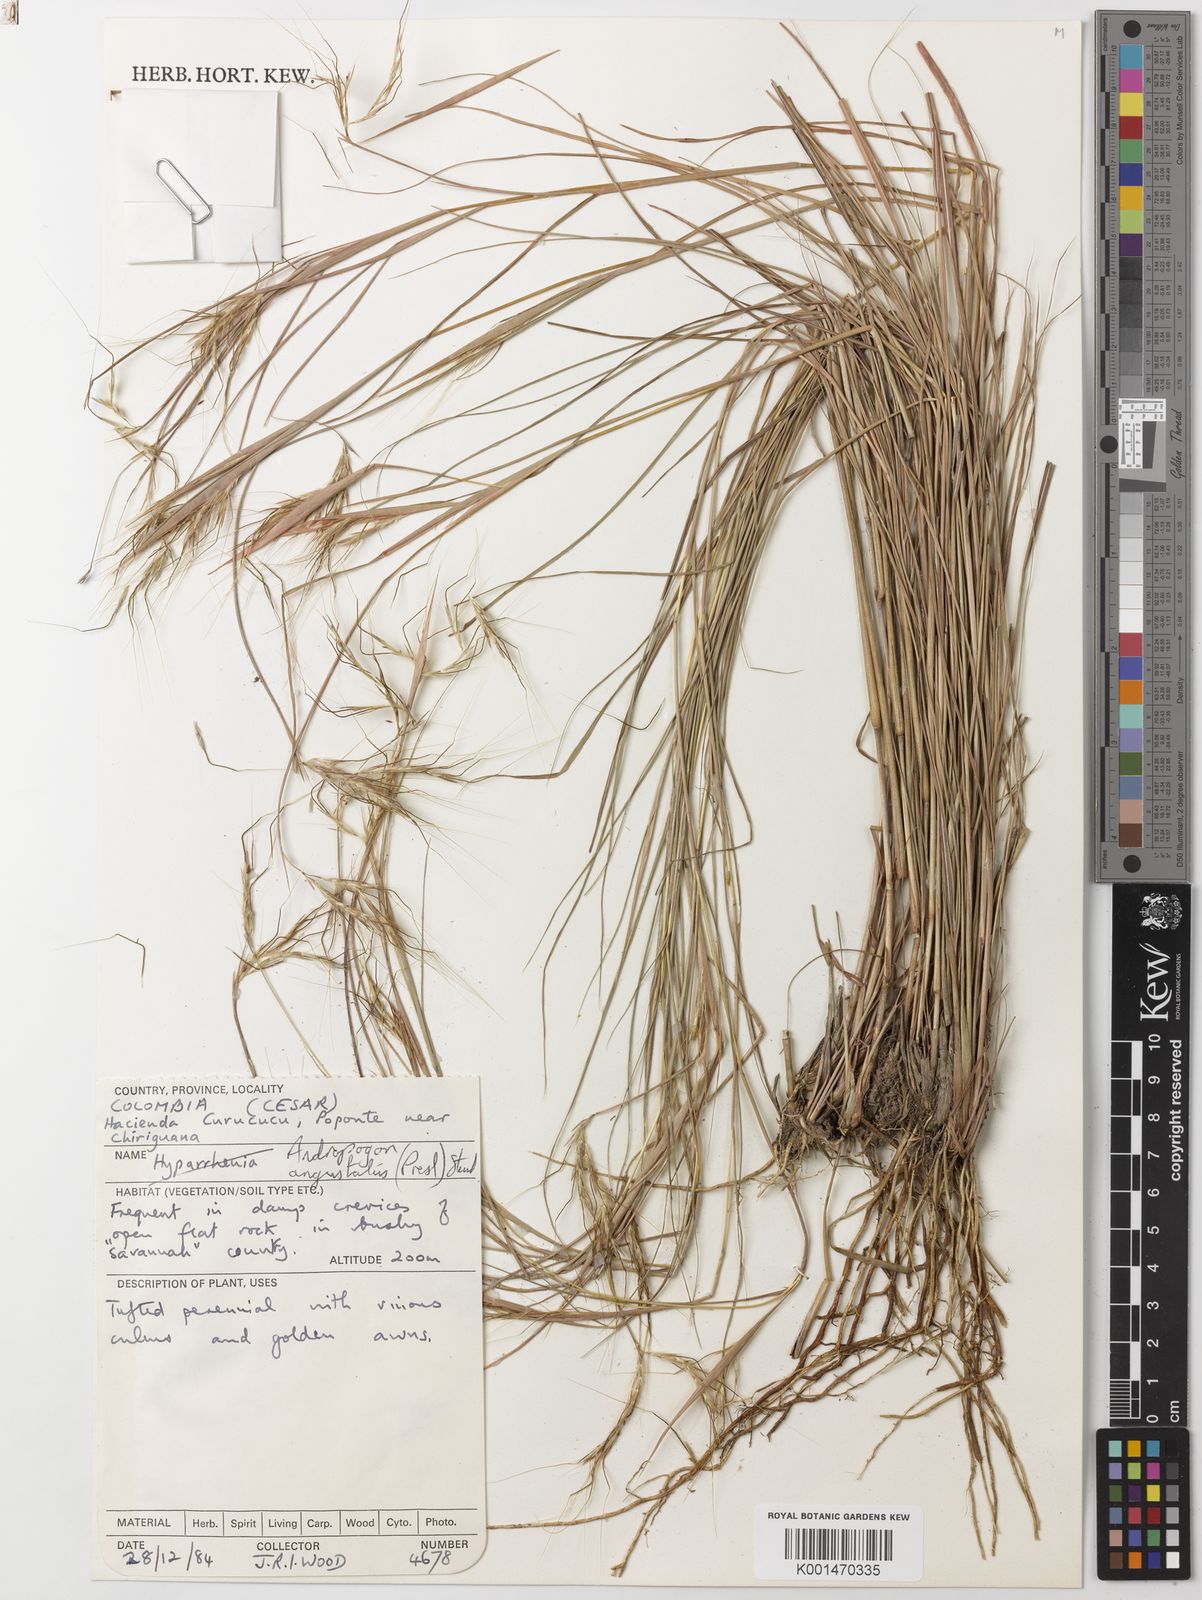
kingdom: Plantae
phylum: Tracheophyta
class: Liliopsida
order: Poales
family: Poaceae
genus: Andropogon
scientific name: Andropogon angustatus
